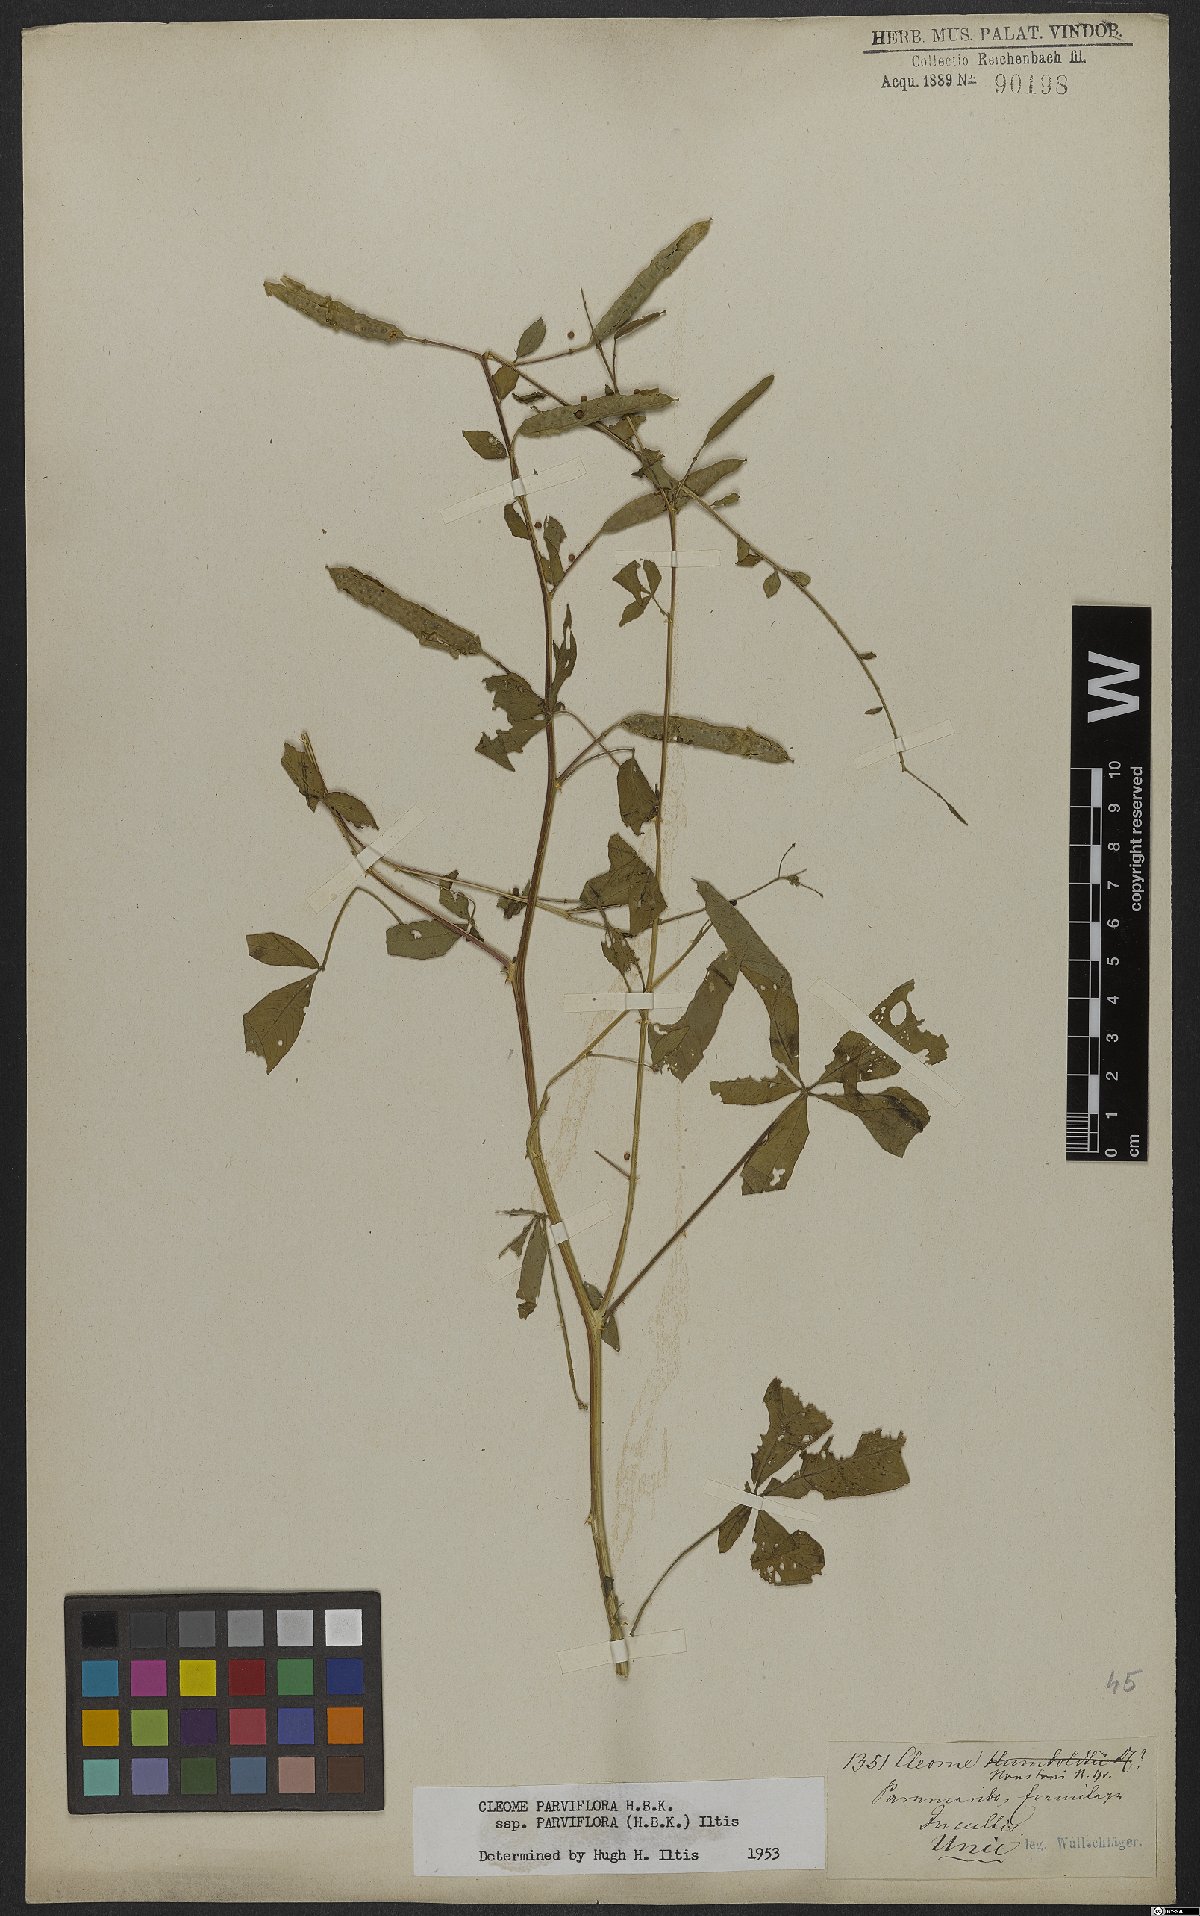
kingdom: Plantae
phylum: Tracheophyta
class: Magnoliopsida
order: Brassicales
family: Cleomaceae
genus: Tarenaya
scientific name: Tarenaya parviflora
